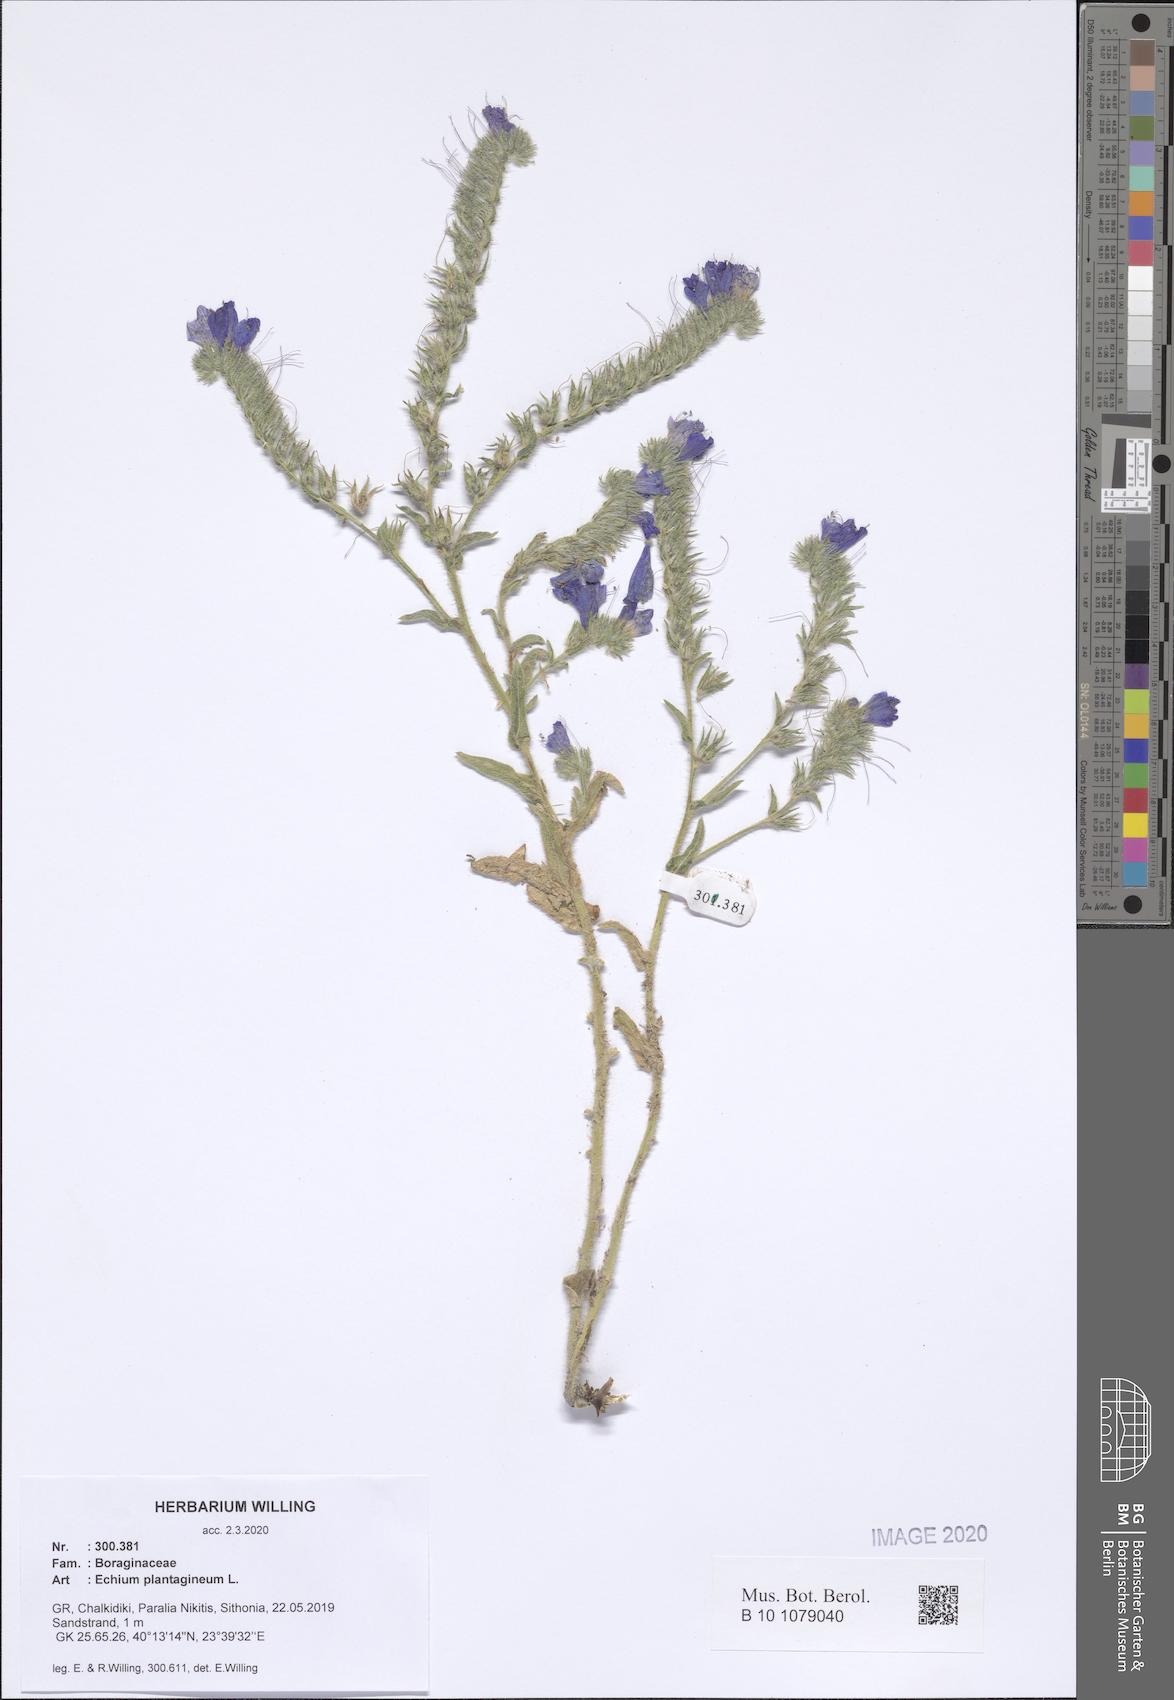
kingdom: Plantae
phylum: Tracheophyta
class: Magnoliopsida
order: Boraginales
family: Boraginaceae
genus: Echium
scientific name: Echium plantagineum
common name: Purple viper's-bugloss
